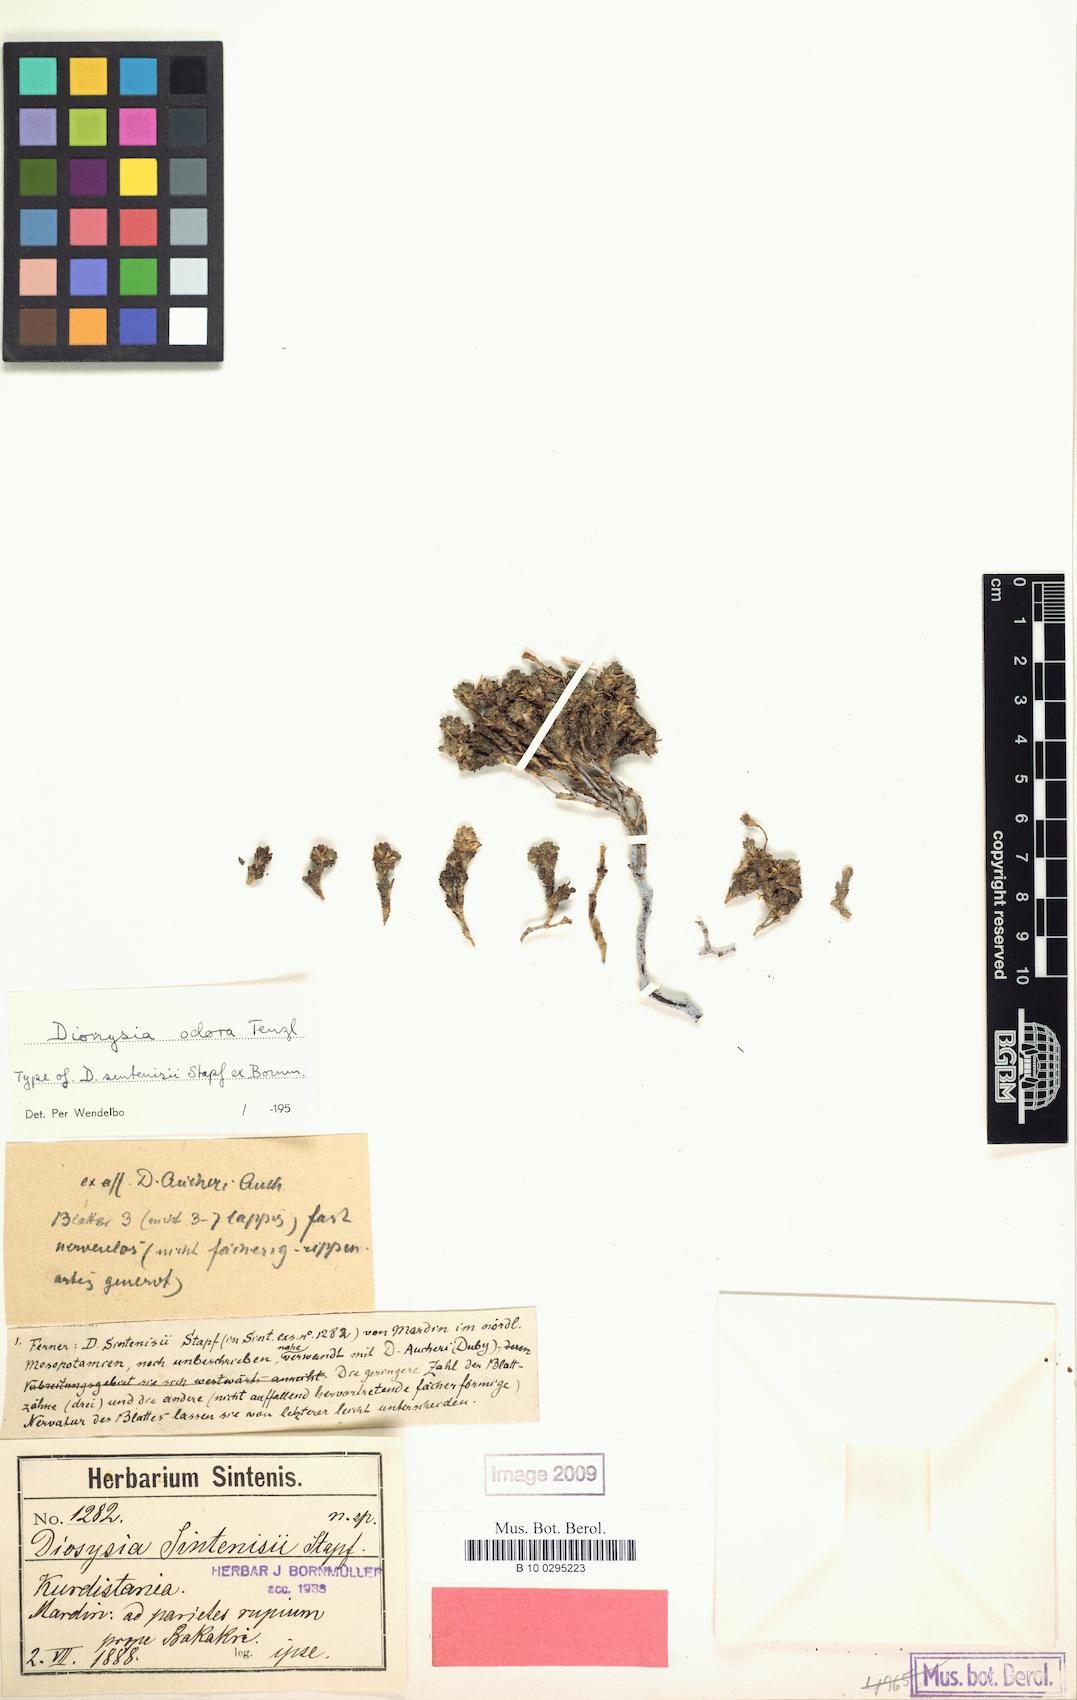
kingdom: Plantae
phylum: Tracheophyta
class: Magnoliopsida
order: Ericales
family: Primulaceae
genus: Dionysia
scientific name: Dionysia odora
